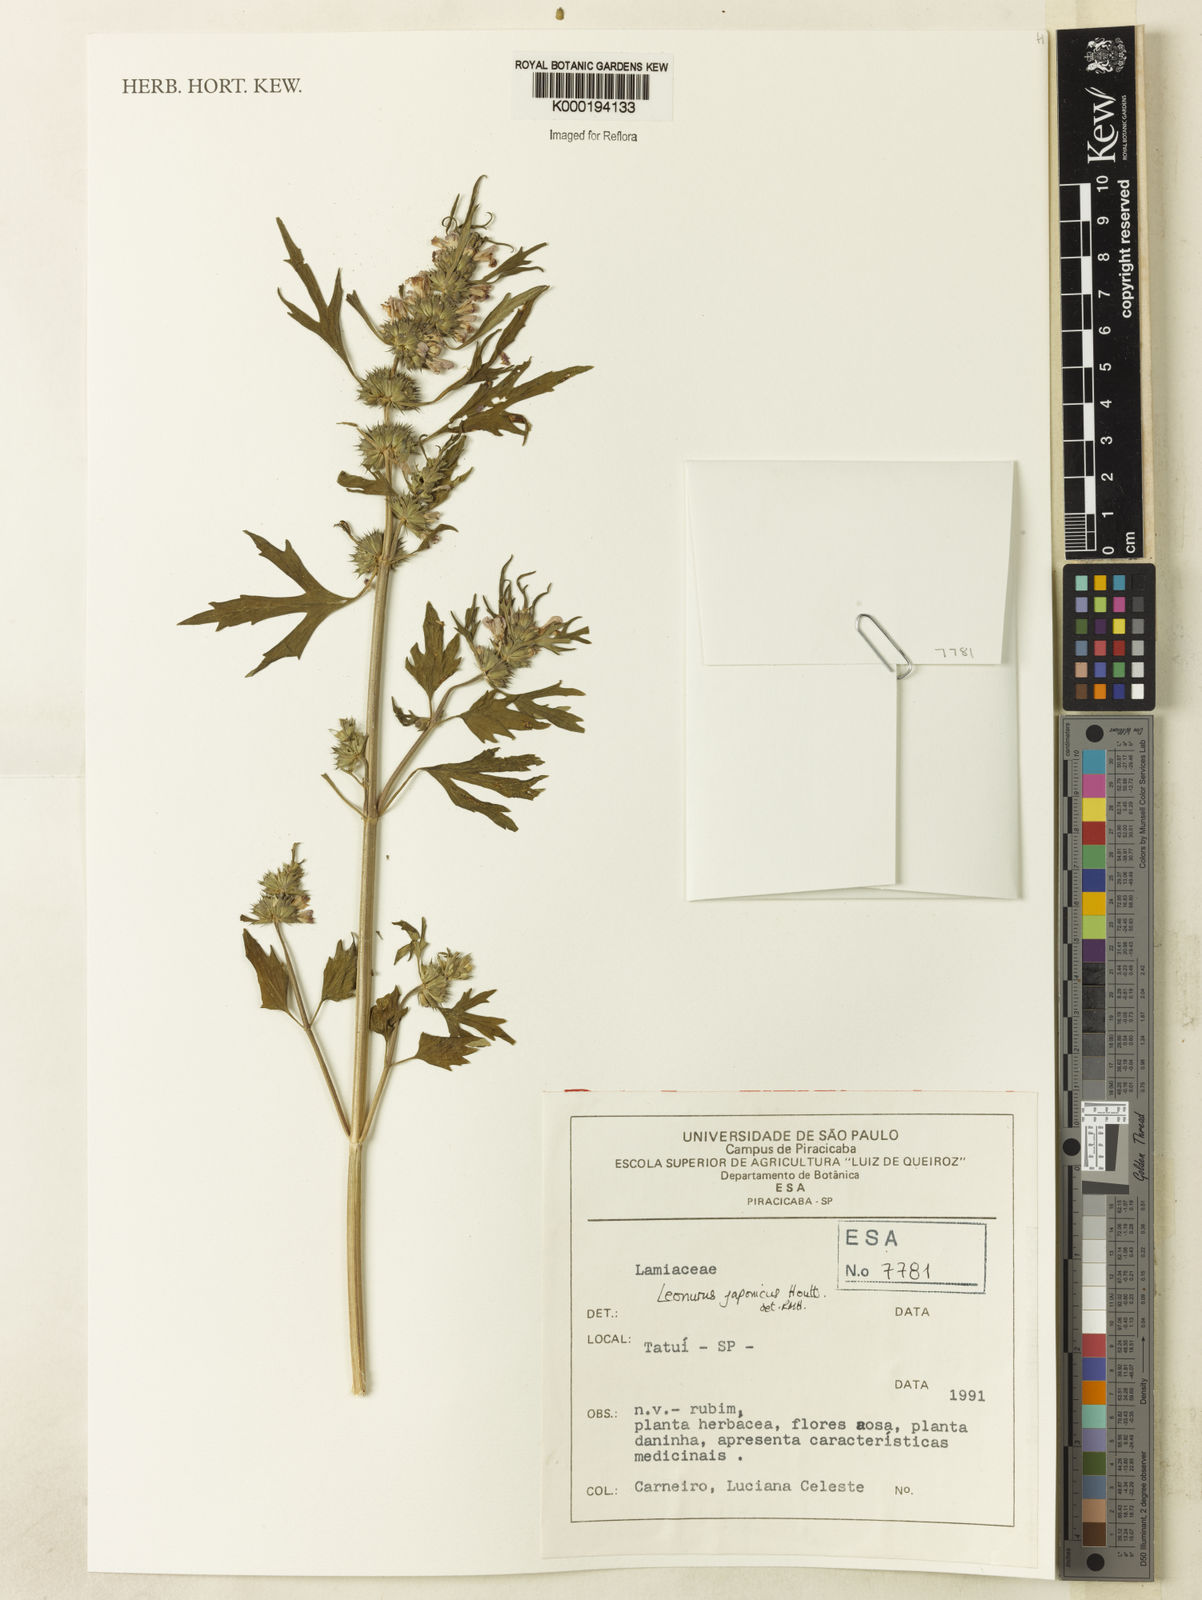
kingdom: Plantae
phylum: Tracheophyta
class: Magnoliopsida
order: Lamiales
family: Lamiaceae
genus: Leonurus
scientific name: Leonurus japonicus
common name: Honeyweed
